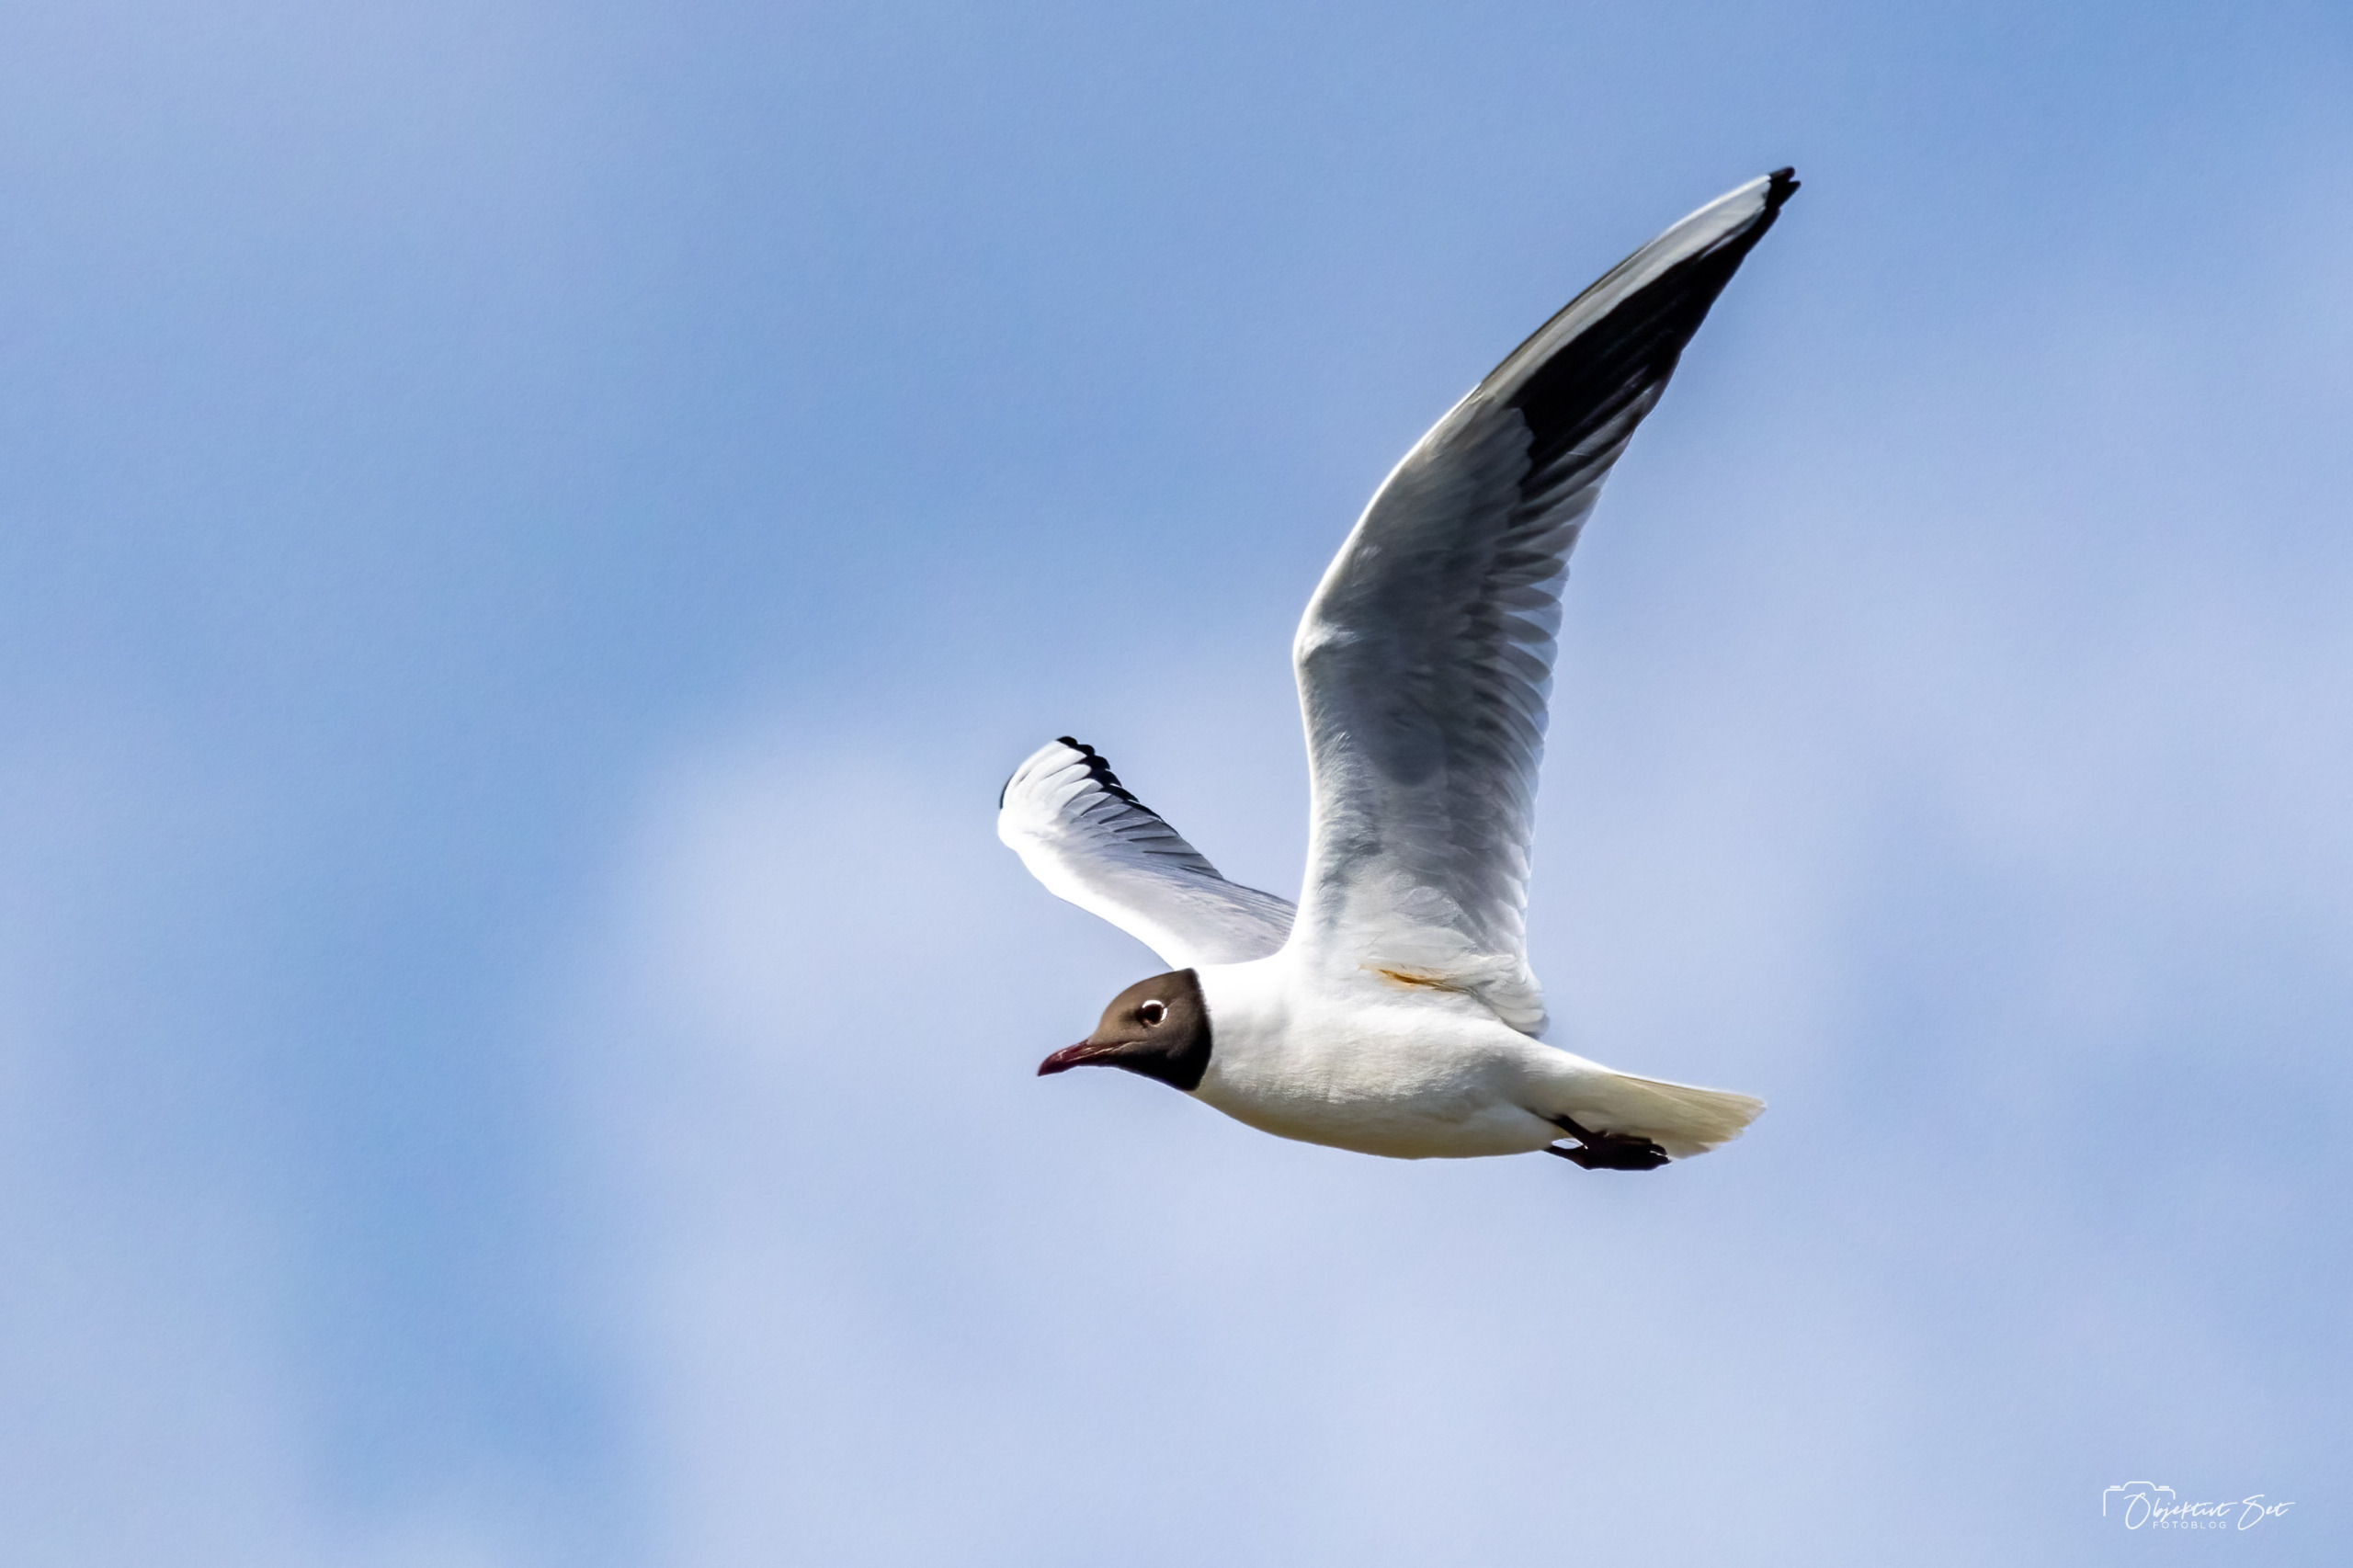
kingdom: Animalia
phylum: Chordata
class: Aves
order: Charadriiformes
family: Laridae
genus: Chroicocephalus
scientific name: Chroicocephalus ridibundus
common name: Hættemåge
